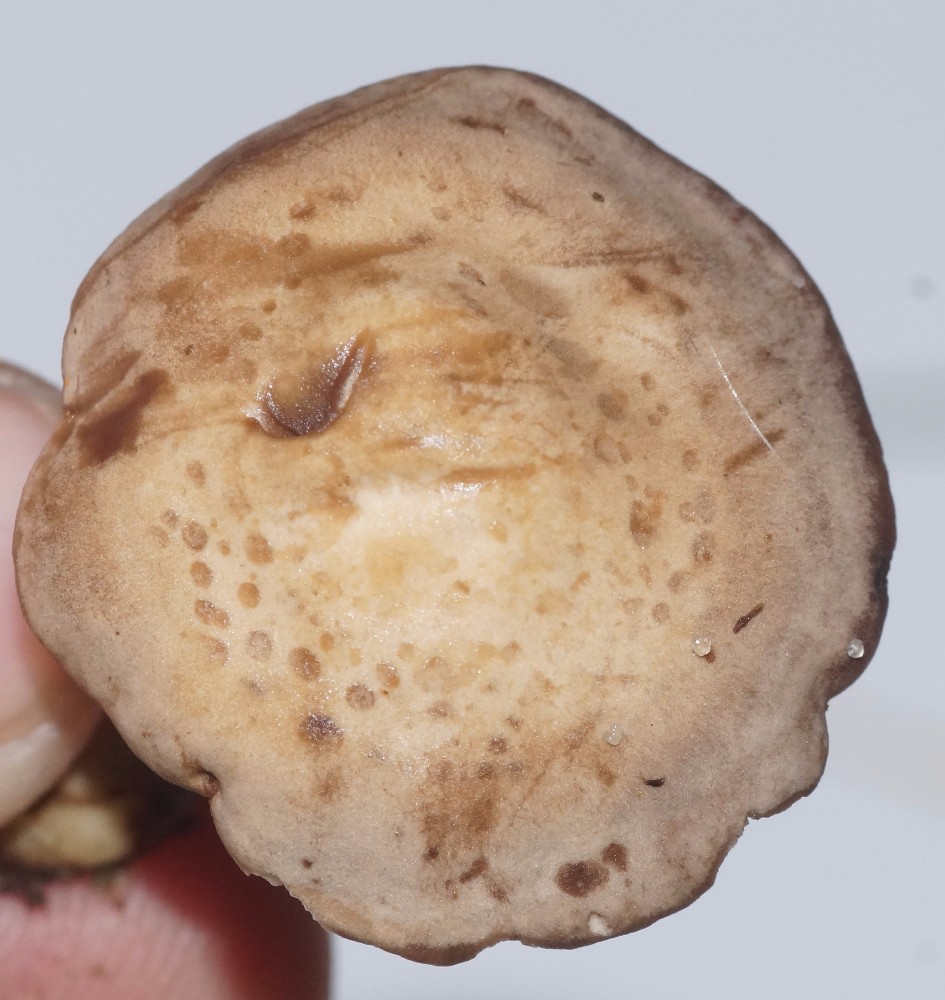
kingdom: Fungi
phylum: Basidiomycota
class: Agaricomycetes
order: Agaricales
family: Tricholomataceae
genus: Lulesia
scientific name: Lulesia
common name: sortnende troldhat
